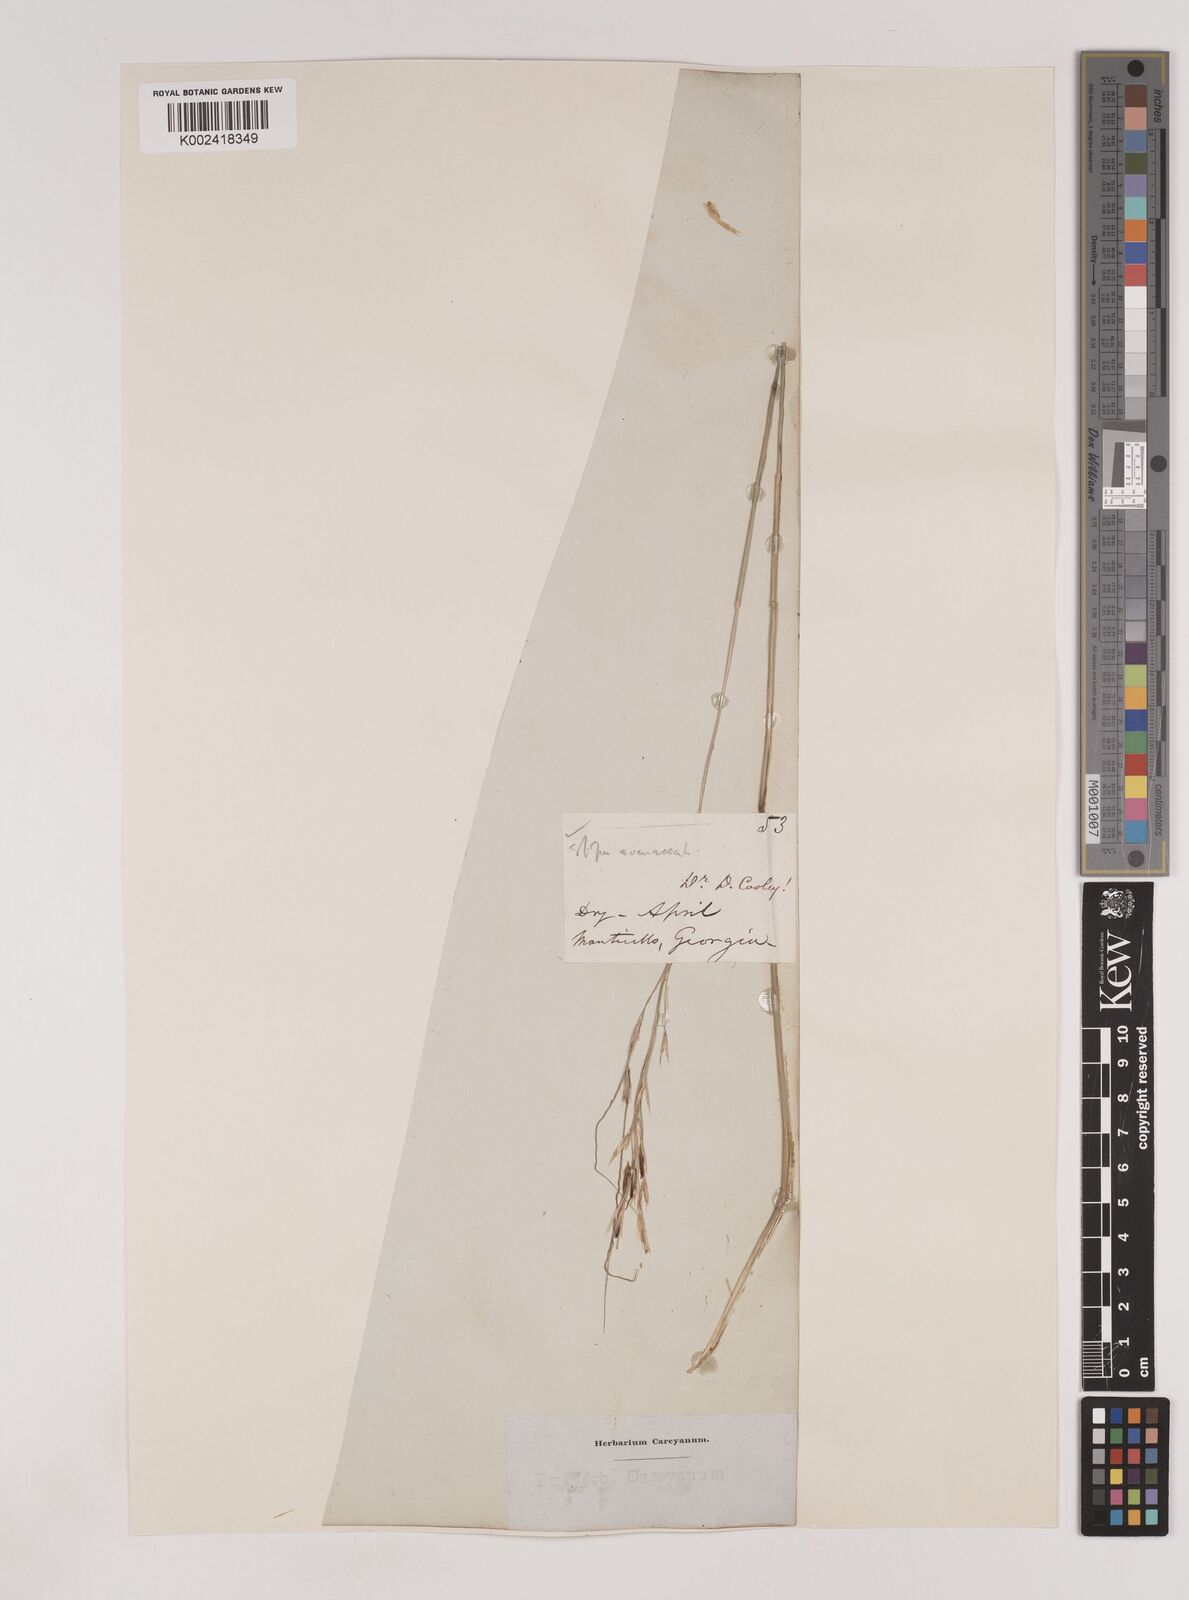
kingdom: Plantae
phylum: Tracheophyta
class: Liliopsida
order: Poales
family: Poaceae
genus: Piptochaetium
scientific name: Piptochaetium avenaceum
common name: Black bunchgrass
